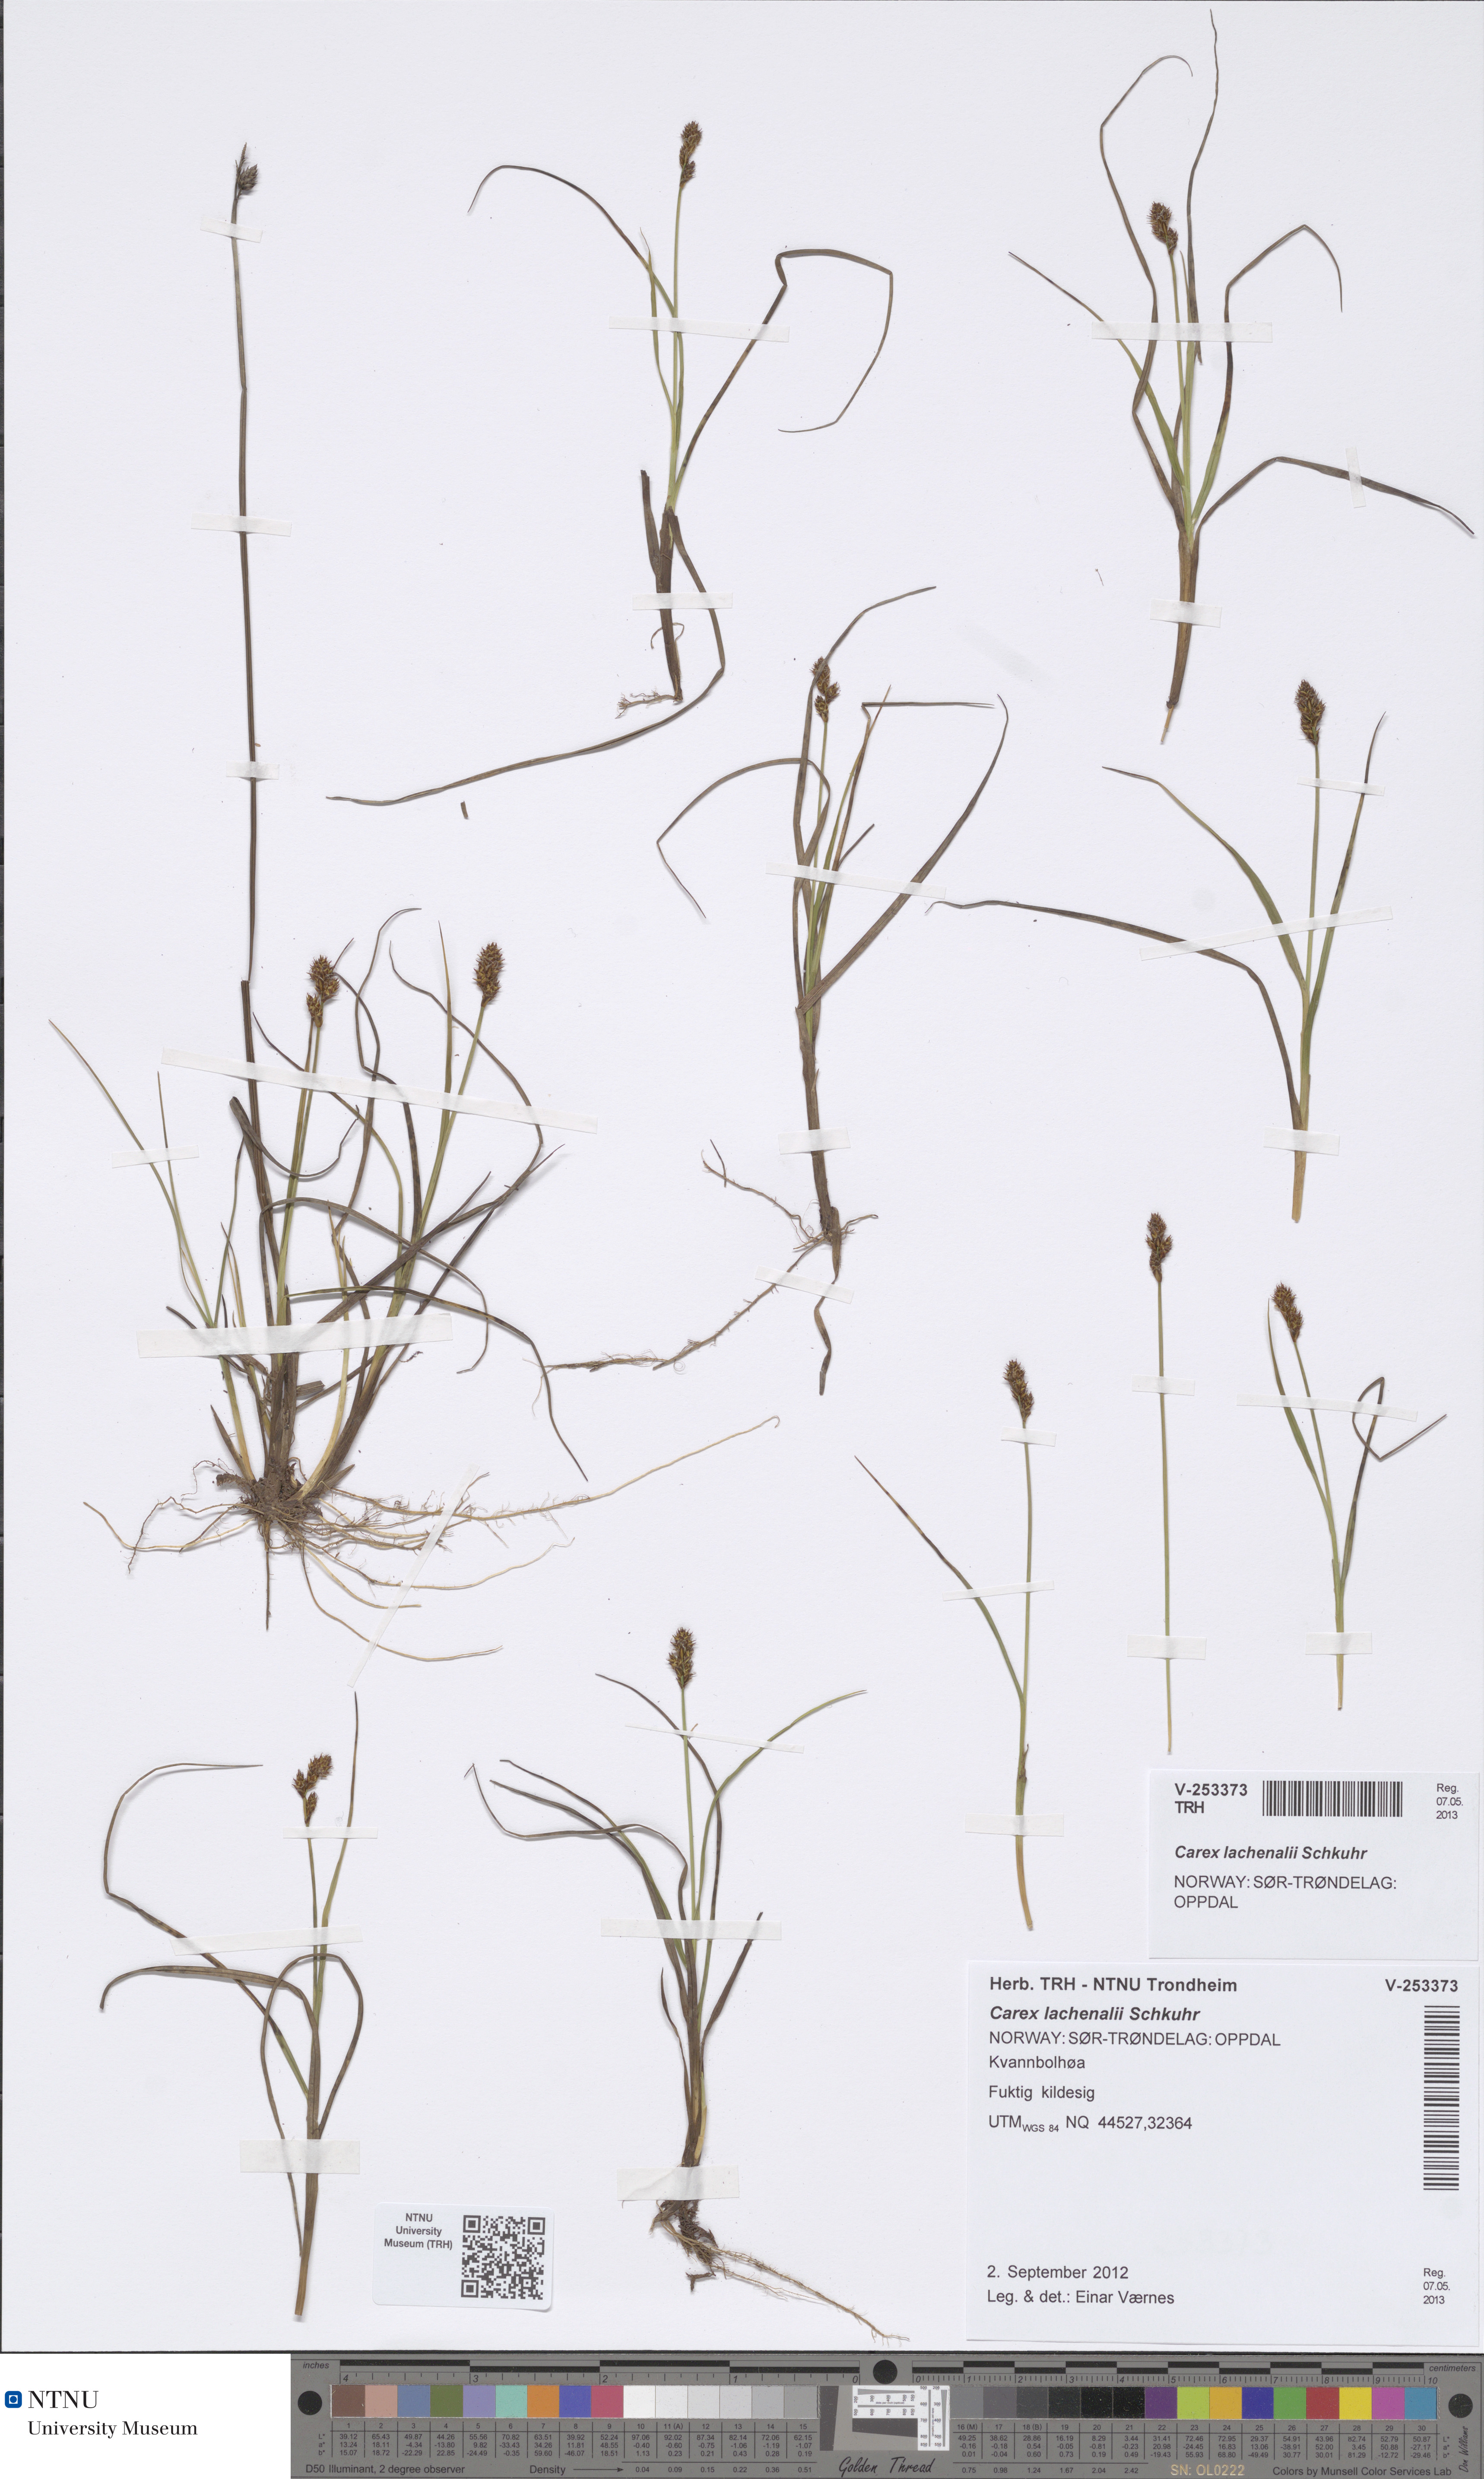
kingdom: Plantae
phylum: Tracheophyta
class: Liliopsida
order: Poales
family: Cyperaceae
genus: Carex
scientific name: Carex lachenalii
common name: Hare's-foot sedge
